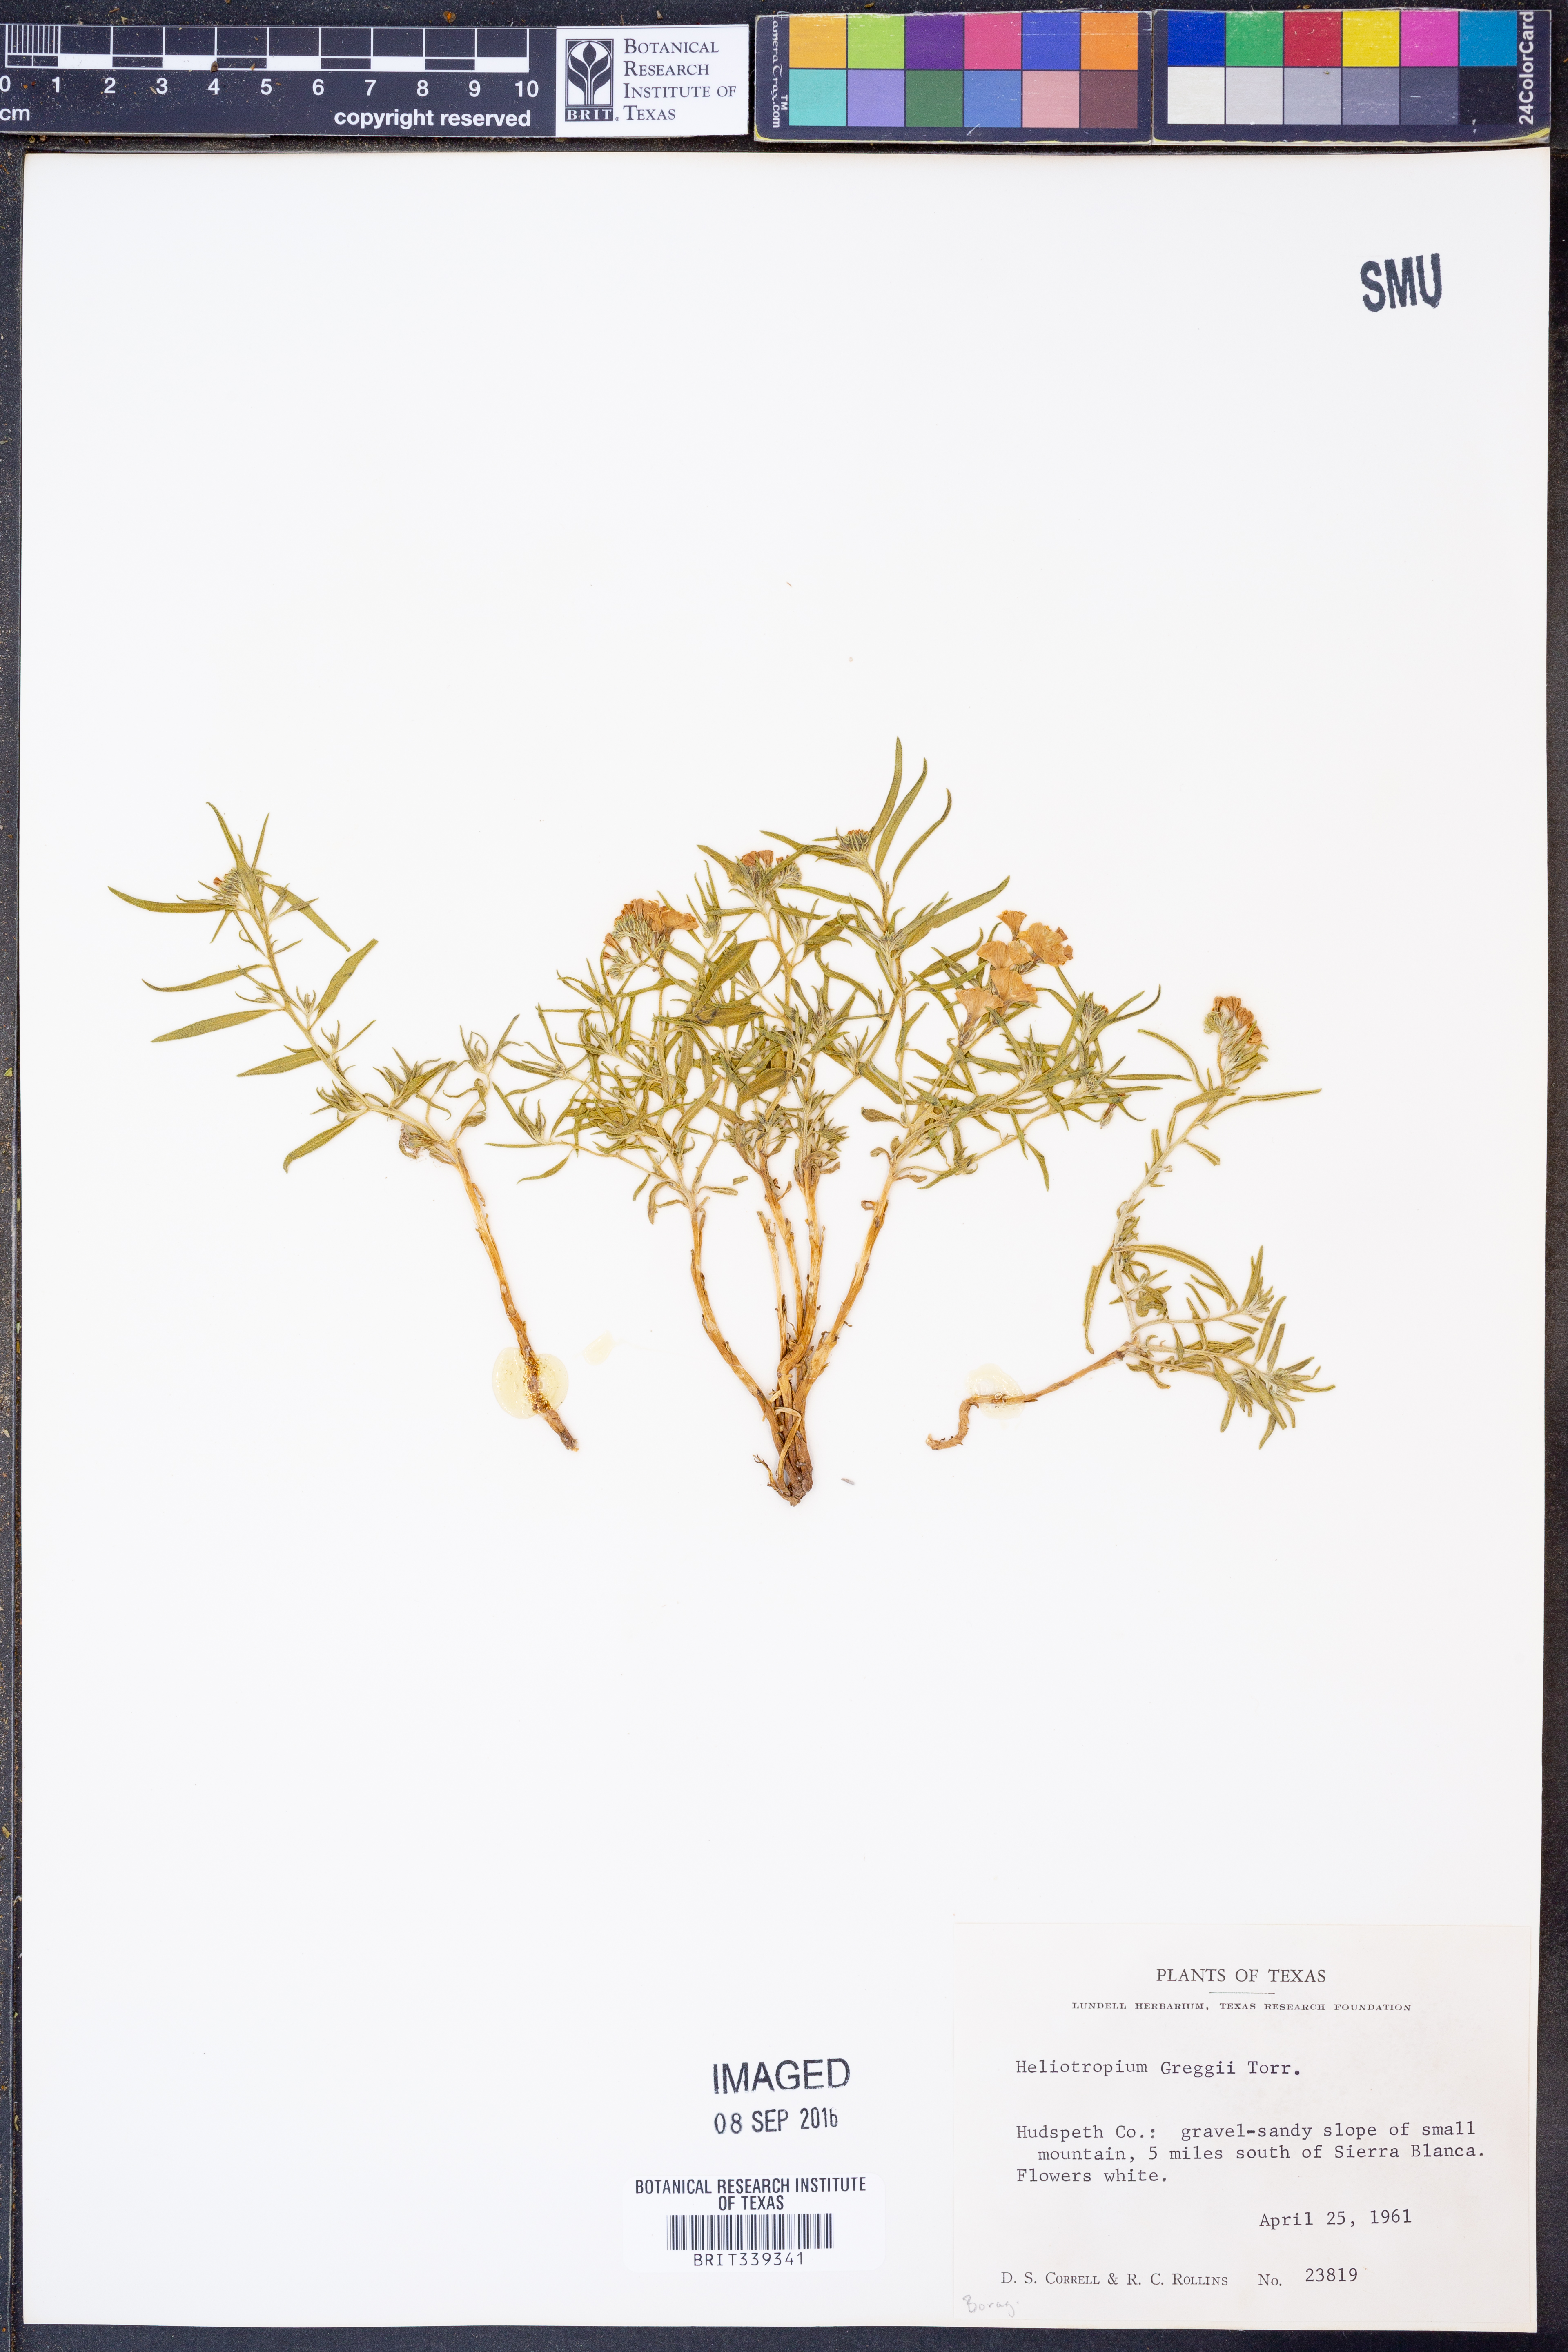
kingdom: Plantae
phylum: Tracheophyta
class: Magnoliopsida
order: Boraginales
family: Heliotropiaceae
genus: Euploca
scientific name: Euploca greggii
